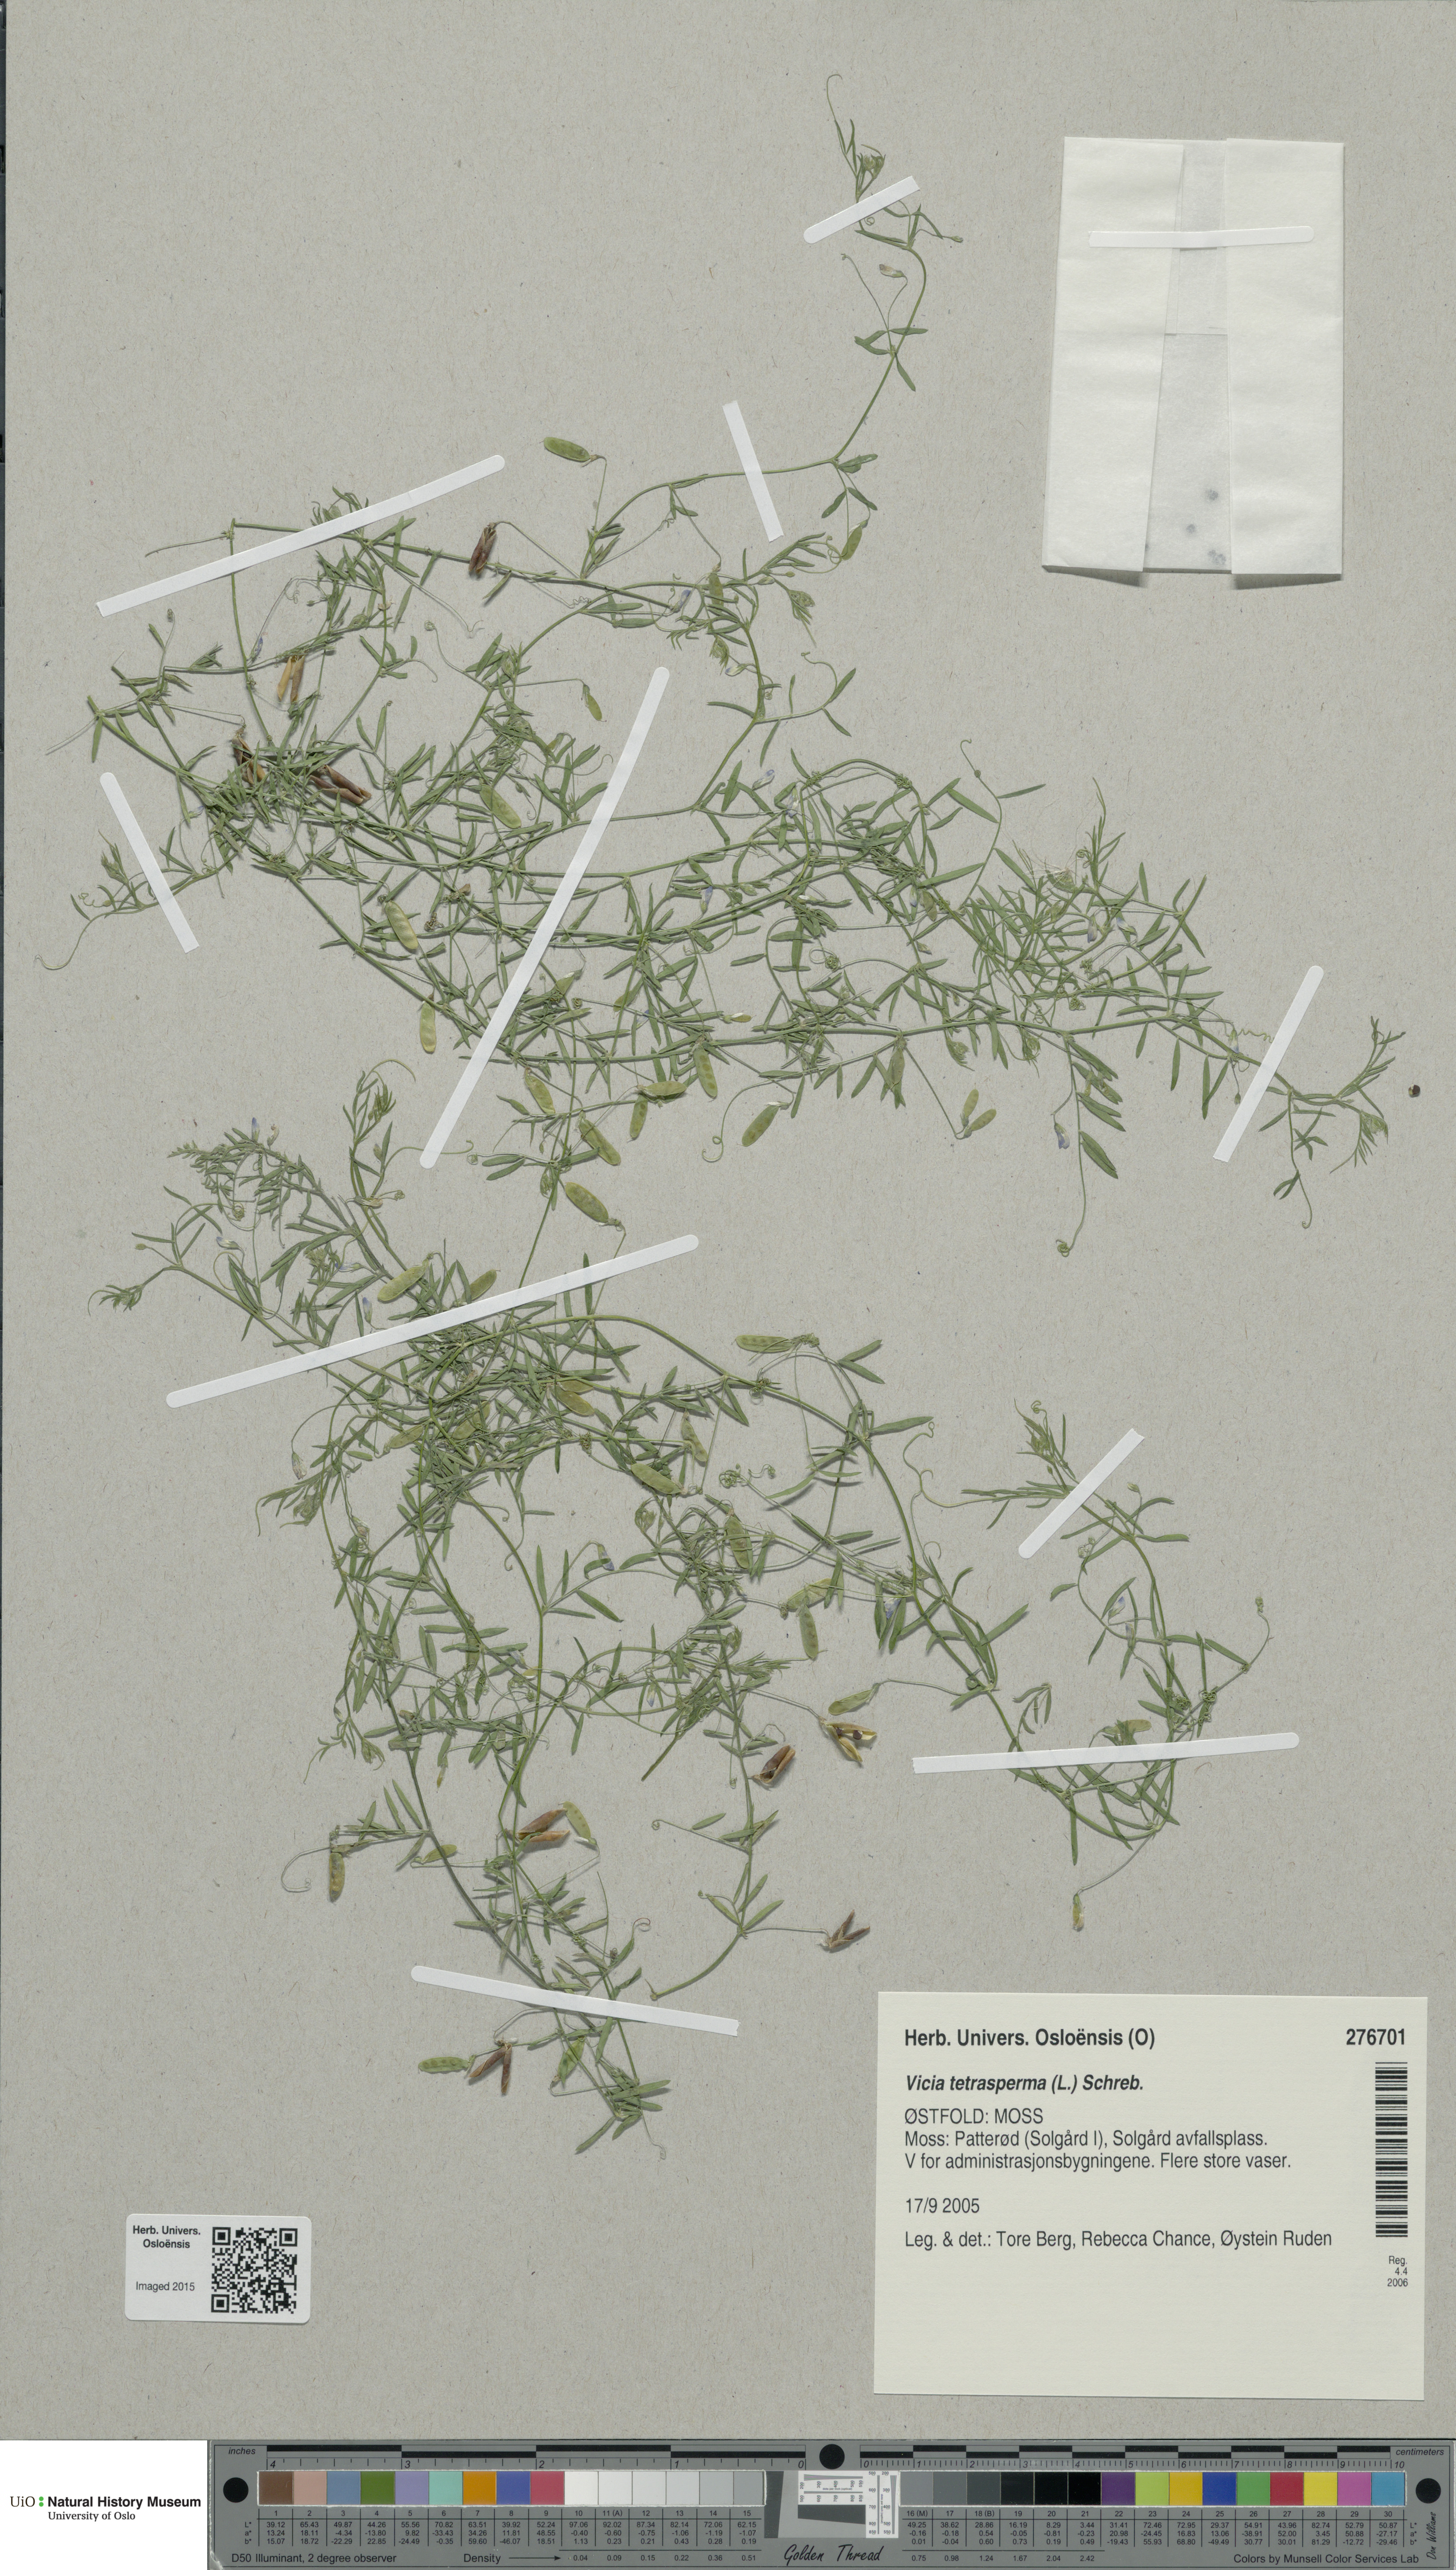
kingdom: Plantae
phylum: Tracheophyta
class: Magnoliopsida
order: Fabales
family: Fabaceae
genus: Vicia
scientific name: Vicia tetrasperma
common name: Smooth tare
